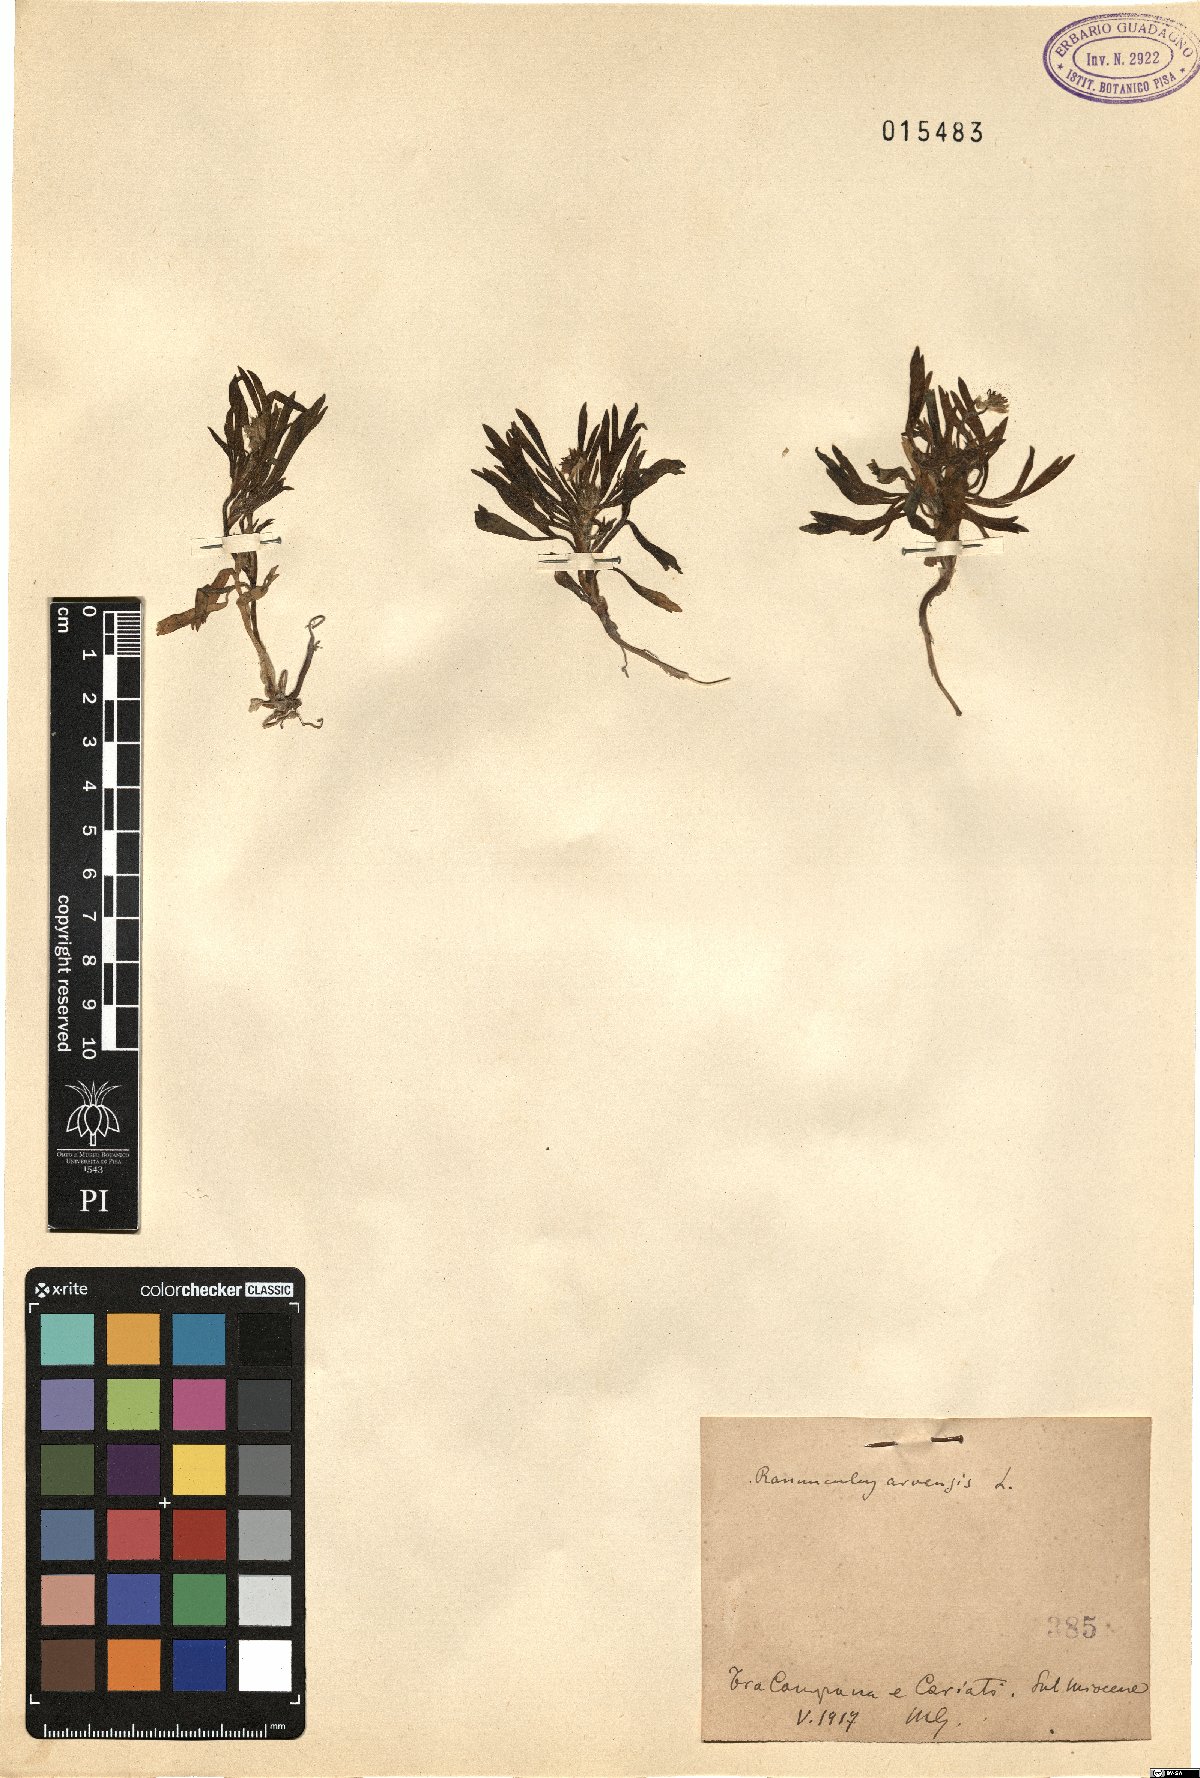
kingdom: Plantae
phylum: Tracheophyta
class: Magnoliopsida
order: Ranunculales
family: Ranunculaceae
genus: Ranunculus
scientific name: Ranunculus arvensis
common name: Corn buttercup
